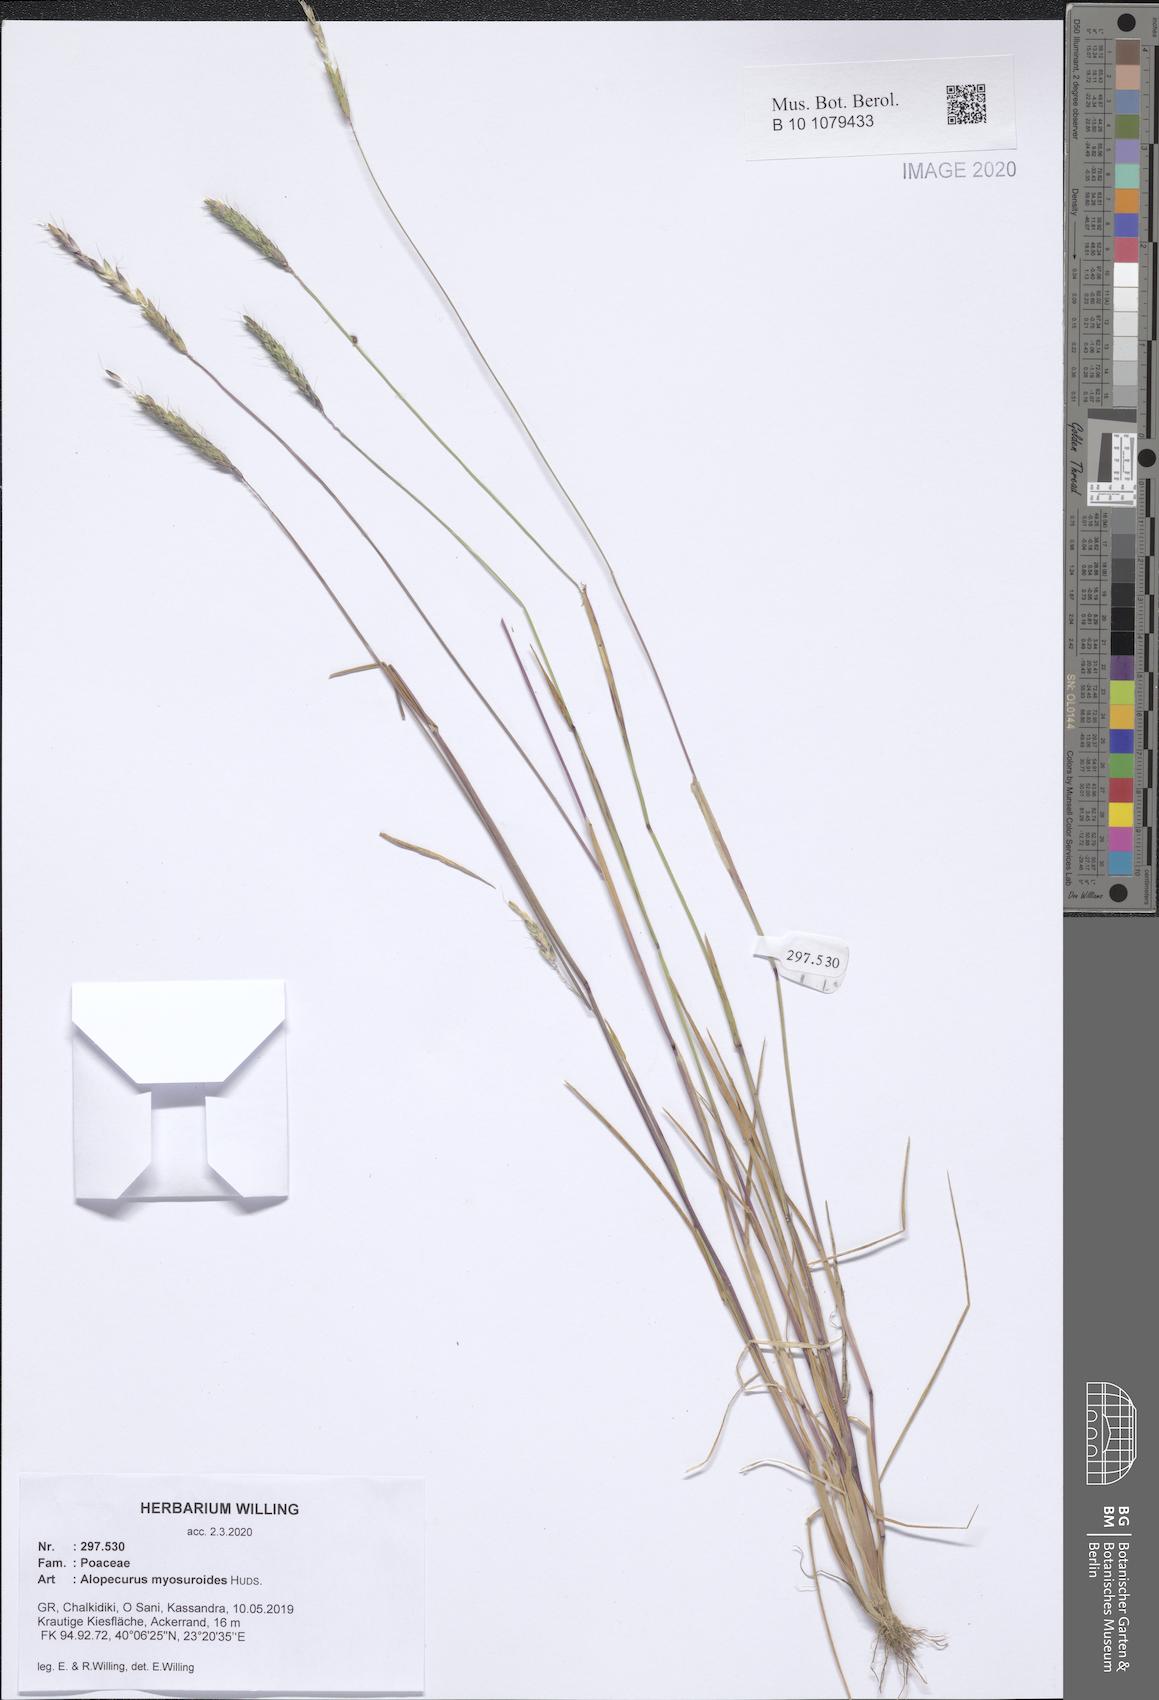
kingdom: Plantae
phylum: Tracheophyta
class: Liliopsida
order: Poales
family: Poaceae
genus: Alopecurus
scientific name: Alopecurus myosuroides
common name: Black-grass
